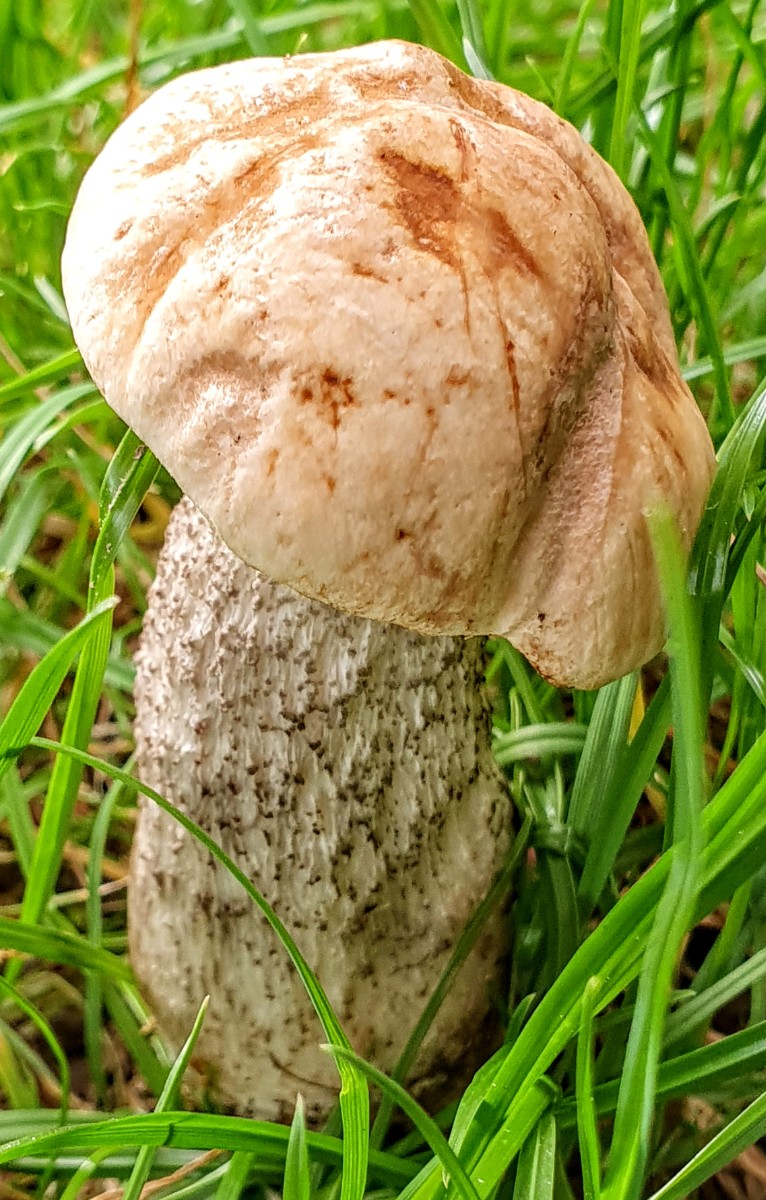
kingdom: Fungi
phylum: Basidiomycota
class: Agaricomycetes
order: Boletales
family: Boletaceae
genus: Leccinum
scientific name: Leccinum versipelle
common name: orange skælrørhat
